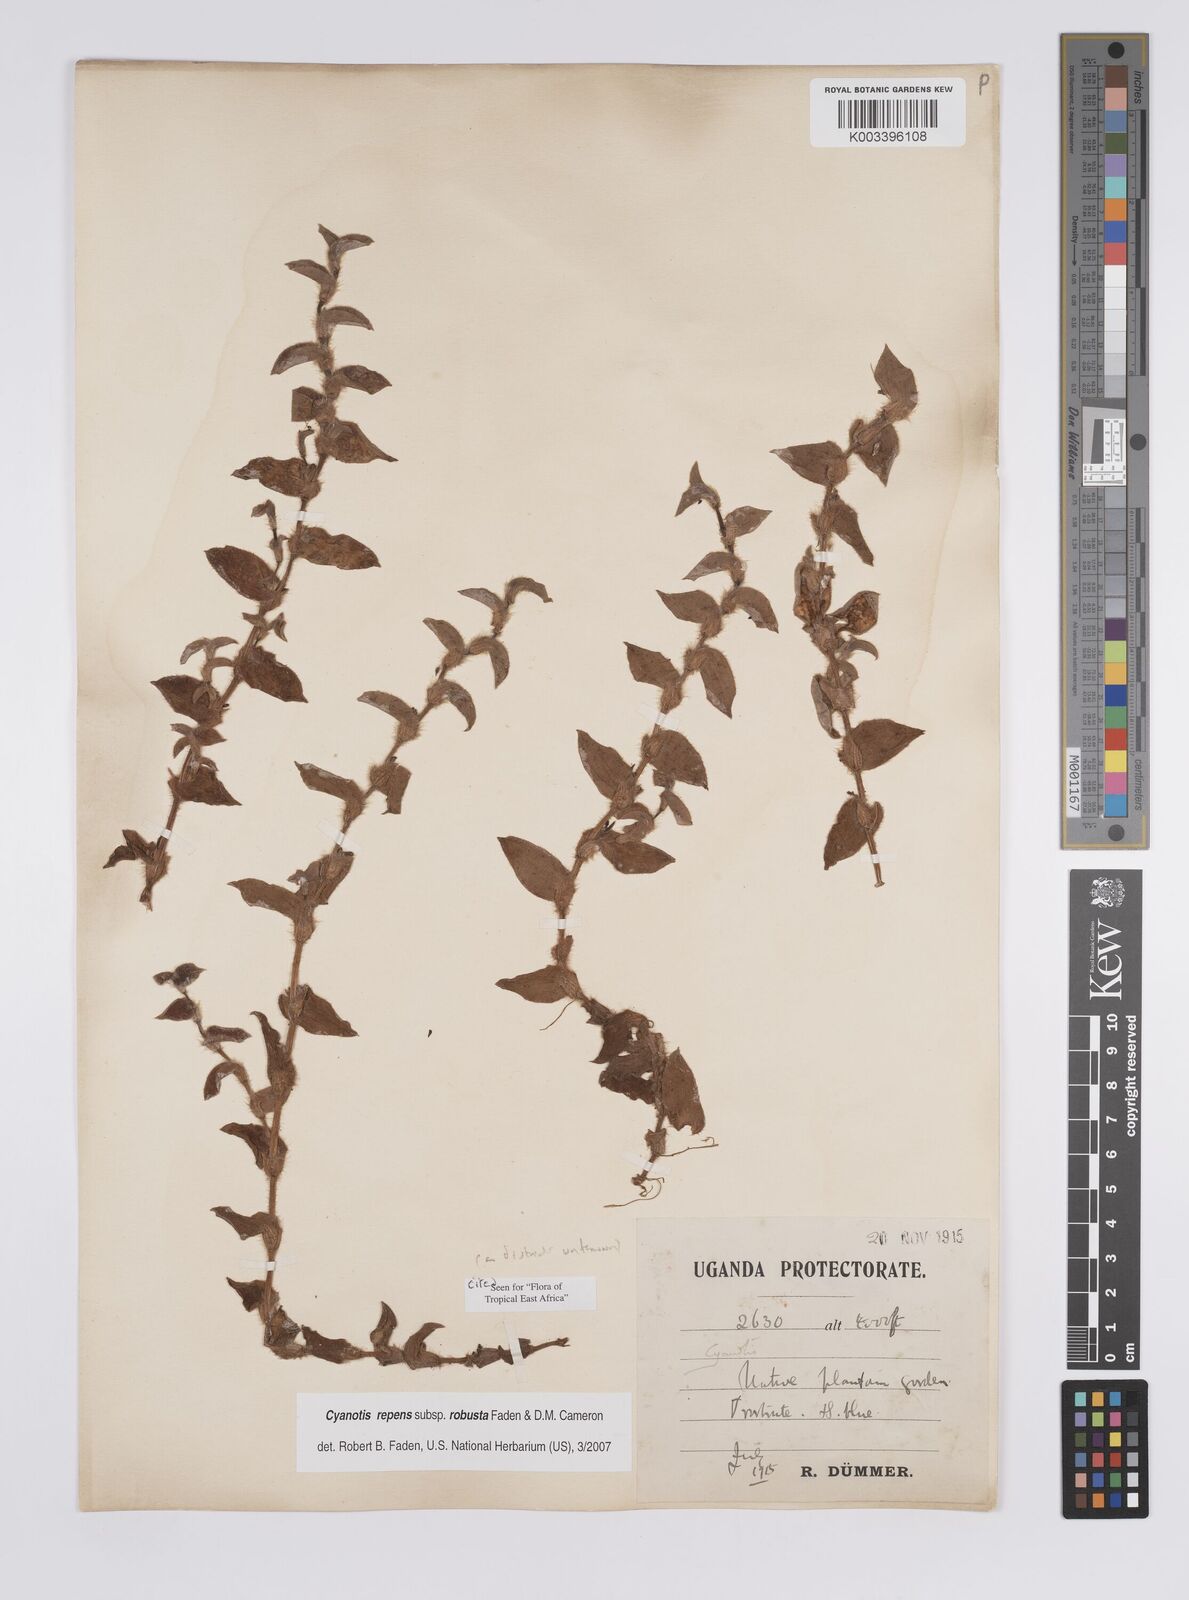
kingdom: Plantae
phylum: Tracheophyta
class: Liliopsida
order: Commelinales
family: Commelinaceae
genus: Cyanotis
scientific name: Cyanotis repens
